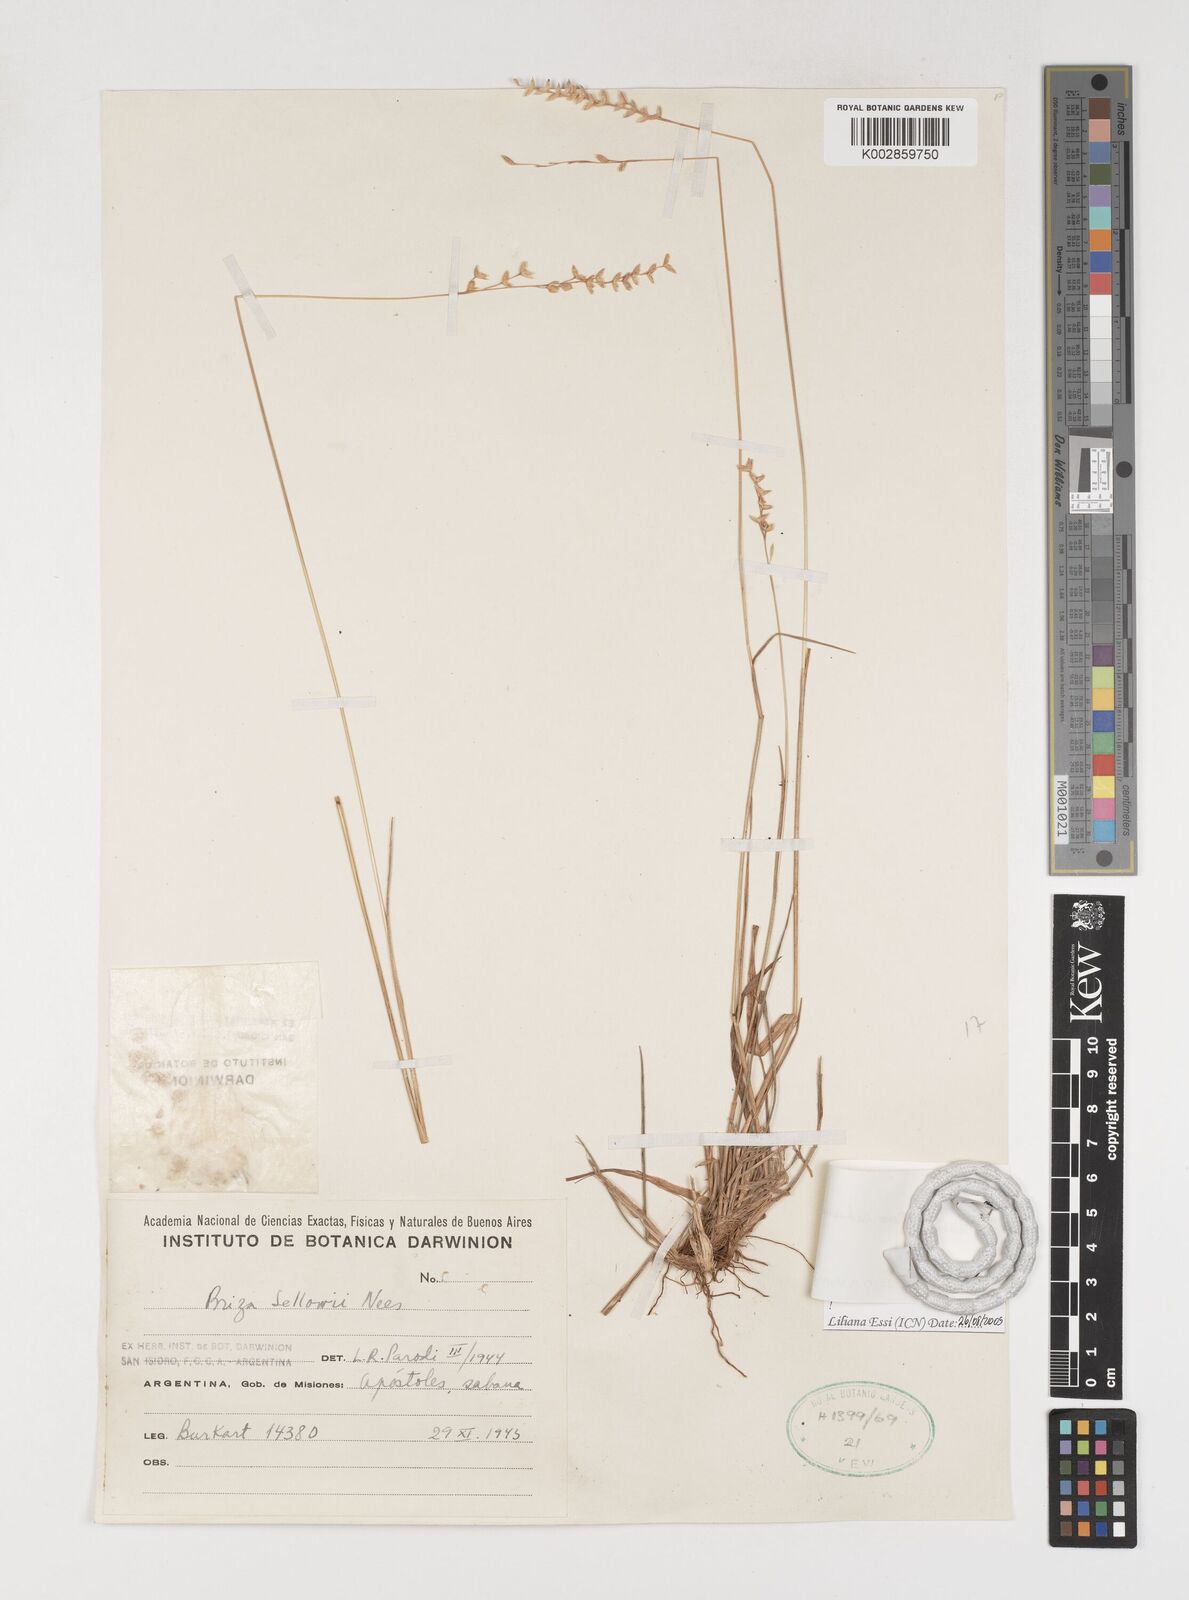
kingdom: Plantae
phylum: Tracheophyta
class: Liliopsida
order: Poales
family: Poaceae
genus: Chascolytrum
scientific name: Chascolytrum subaristatum
